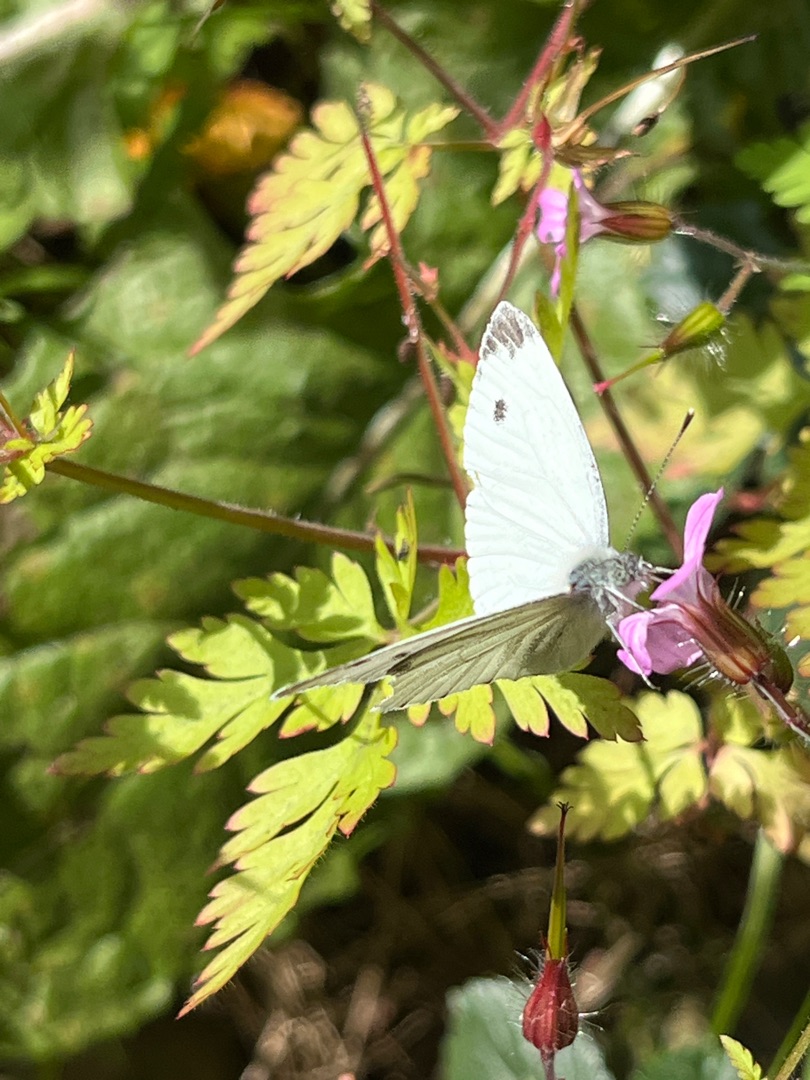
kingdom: Animalia
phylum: Arthropoda
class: Insecta
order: Lepidoptera
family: Pieridae
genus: Pieris
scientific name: Pieris napi
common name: Grønåret kålsommerfugl
